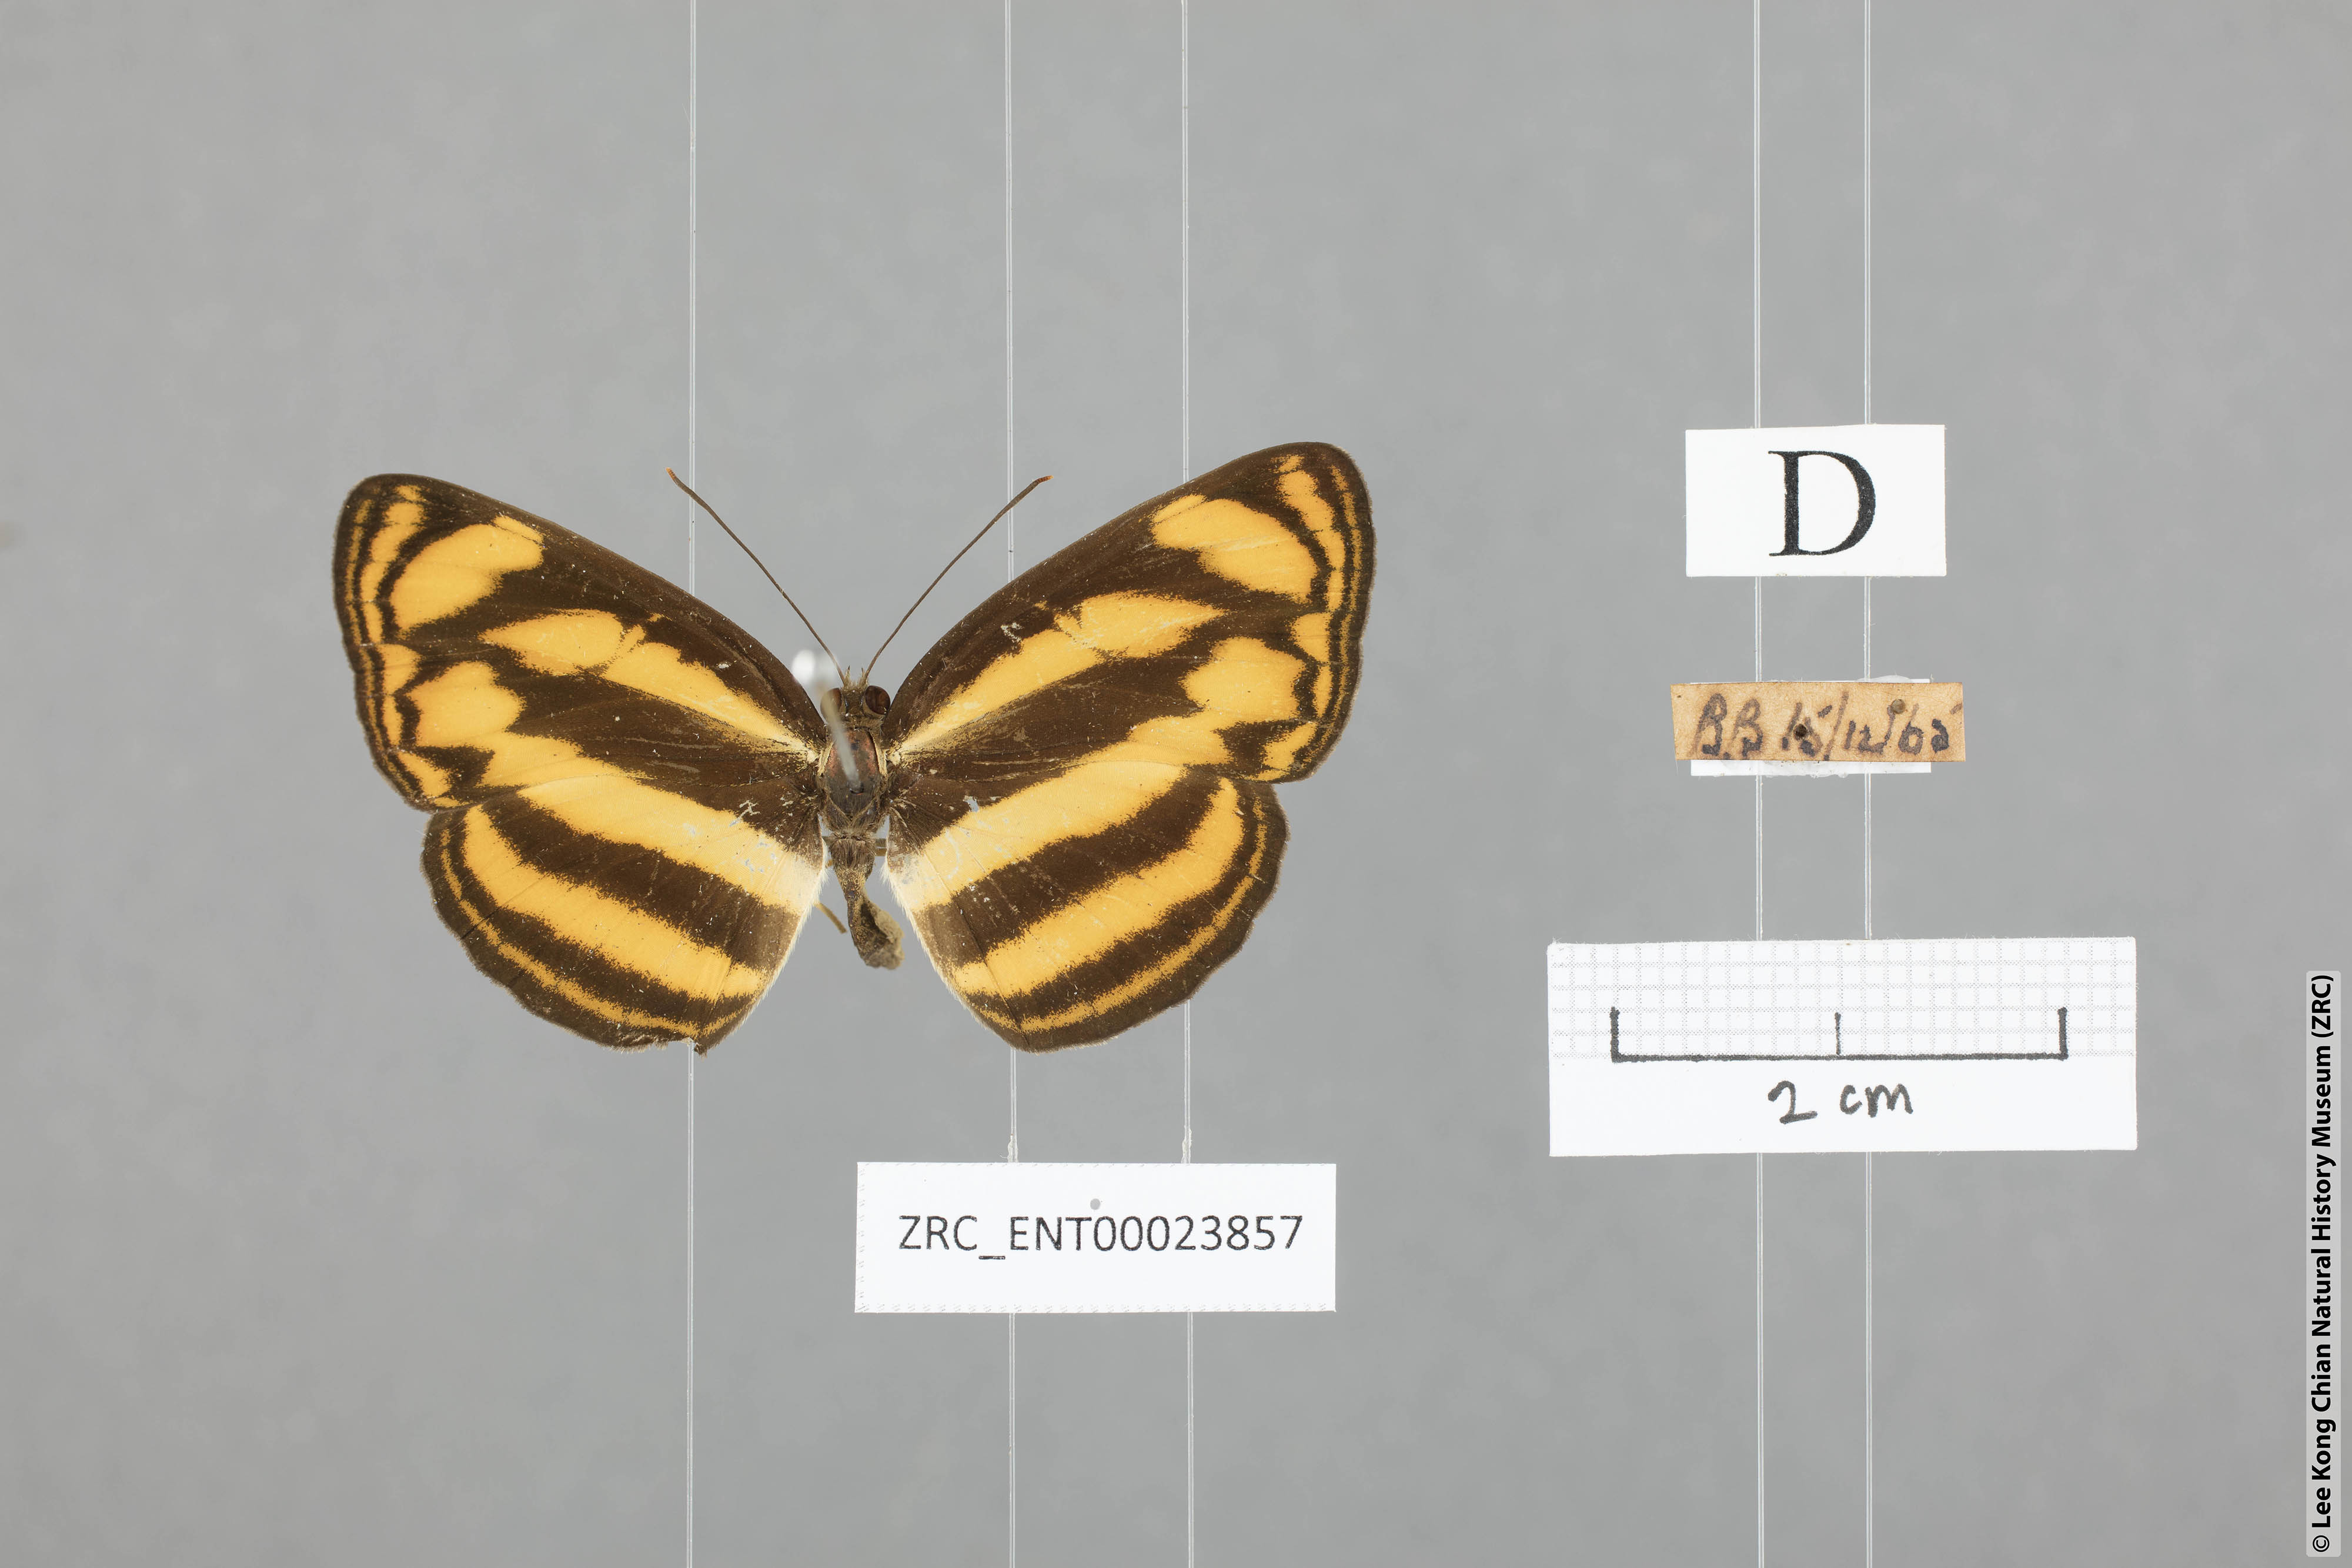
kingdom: Animalia
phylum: Arthropoda
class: Insecta
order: Lepidoptera
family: Nymphalidae
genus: Lasippa
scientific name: Lasippa tiga
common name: Malayan lascar
